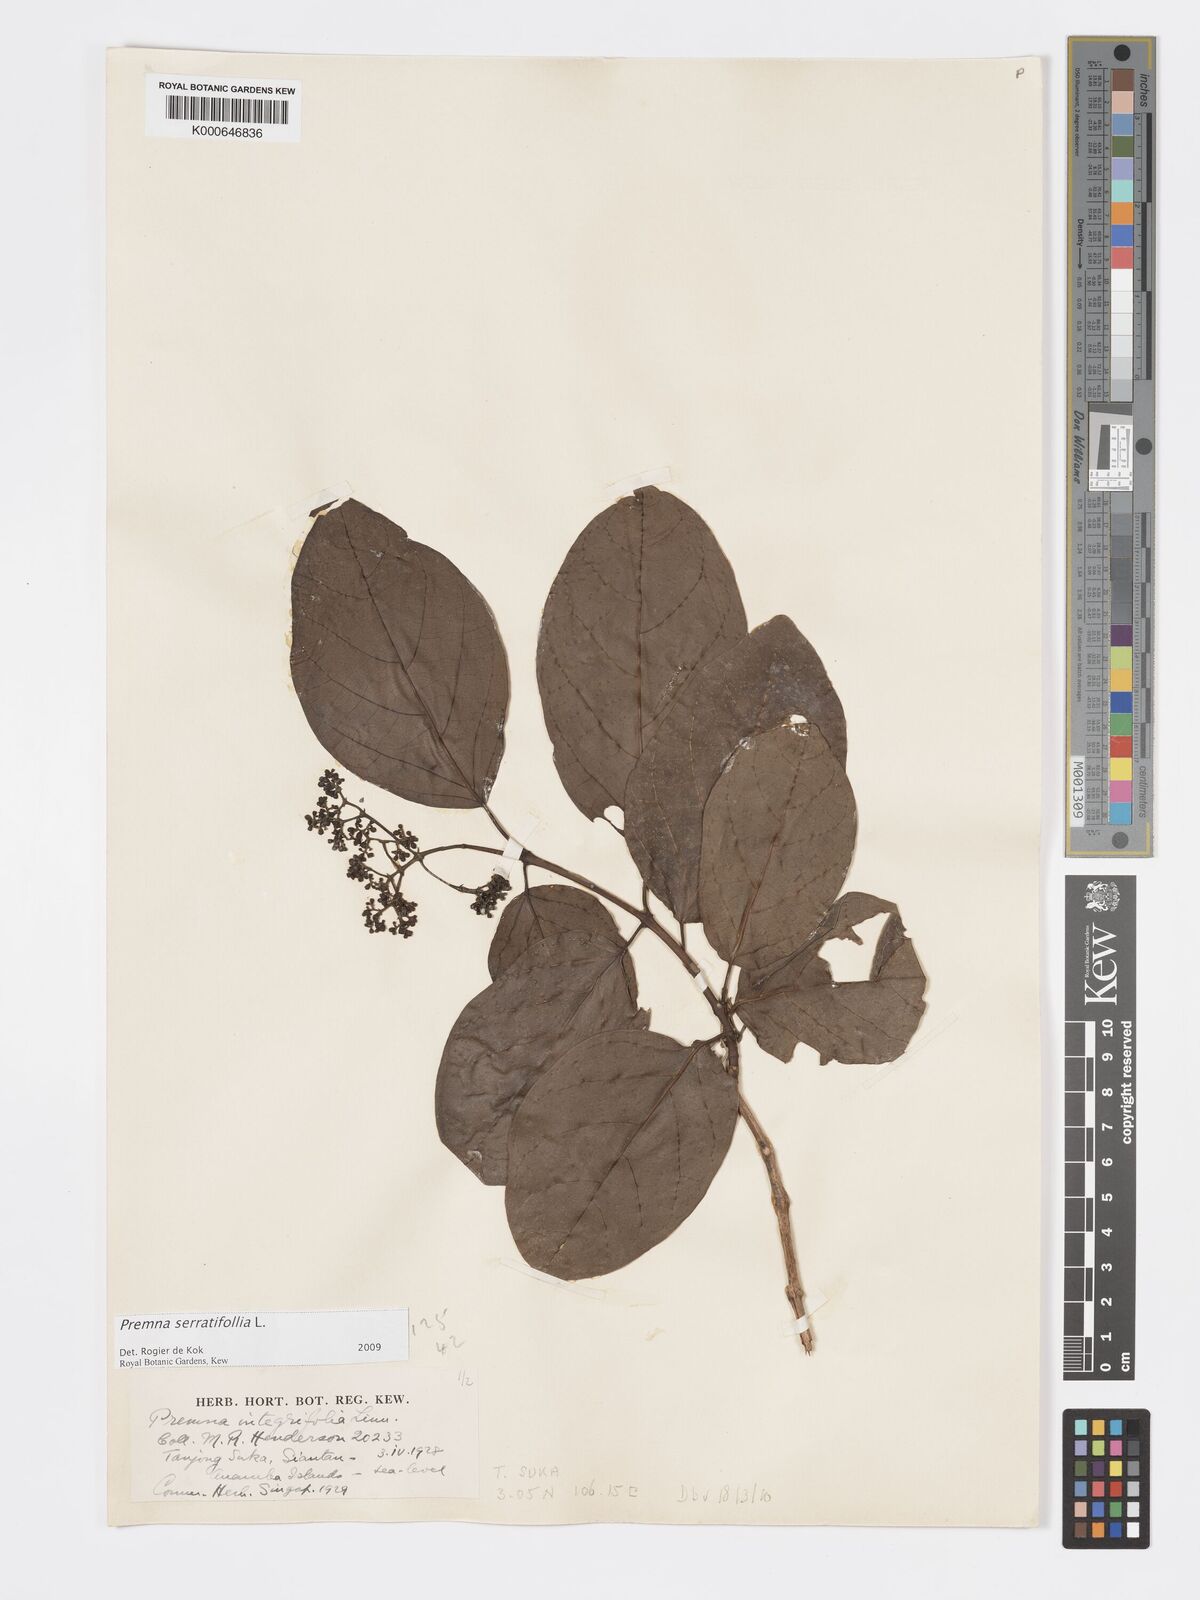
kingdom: Plantae
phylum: Tracheophyta
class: Magnoliopsida
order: Lamiales
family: Lamiaceae
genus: Premna
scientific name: Premna serratifolia
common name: Bastard guelder
